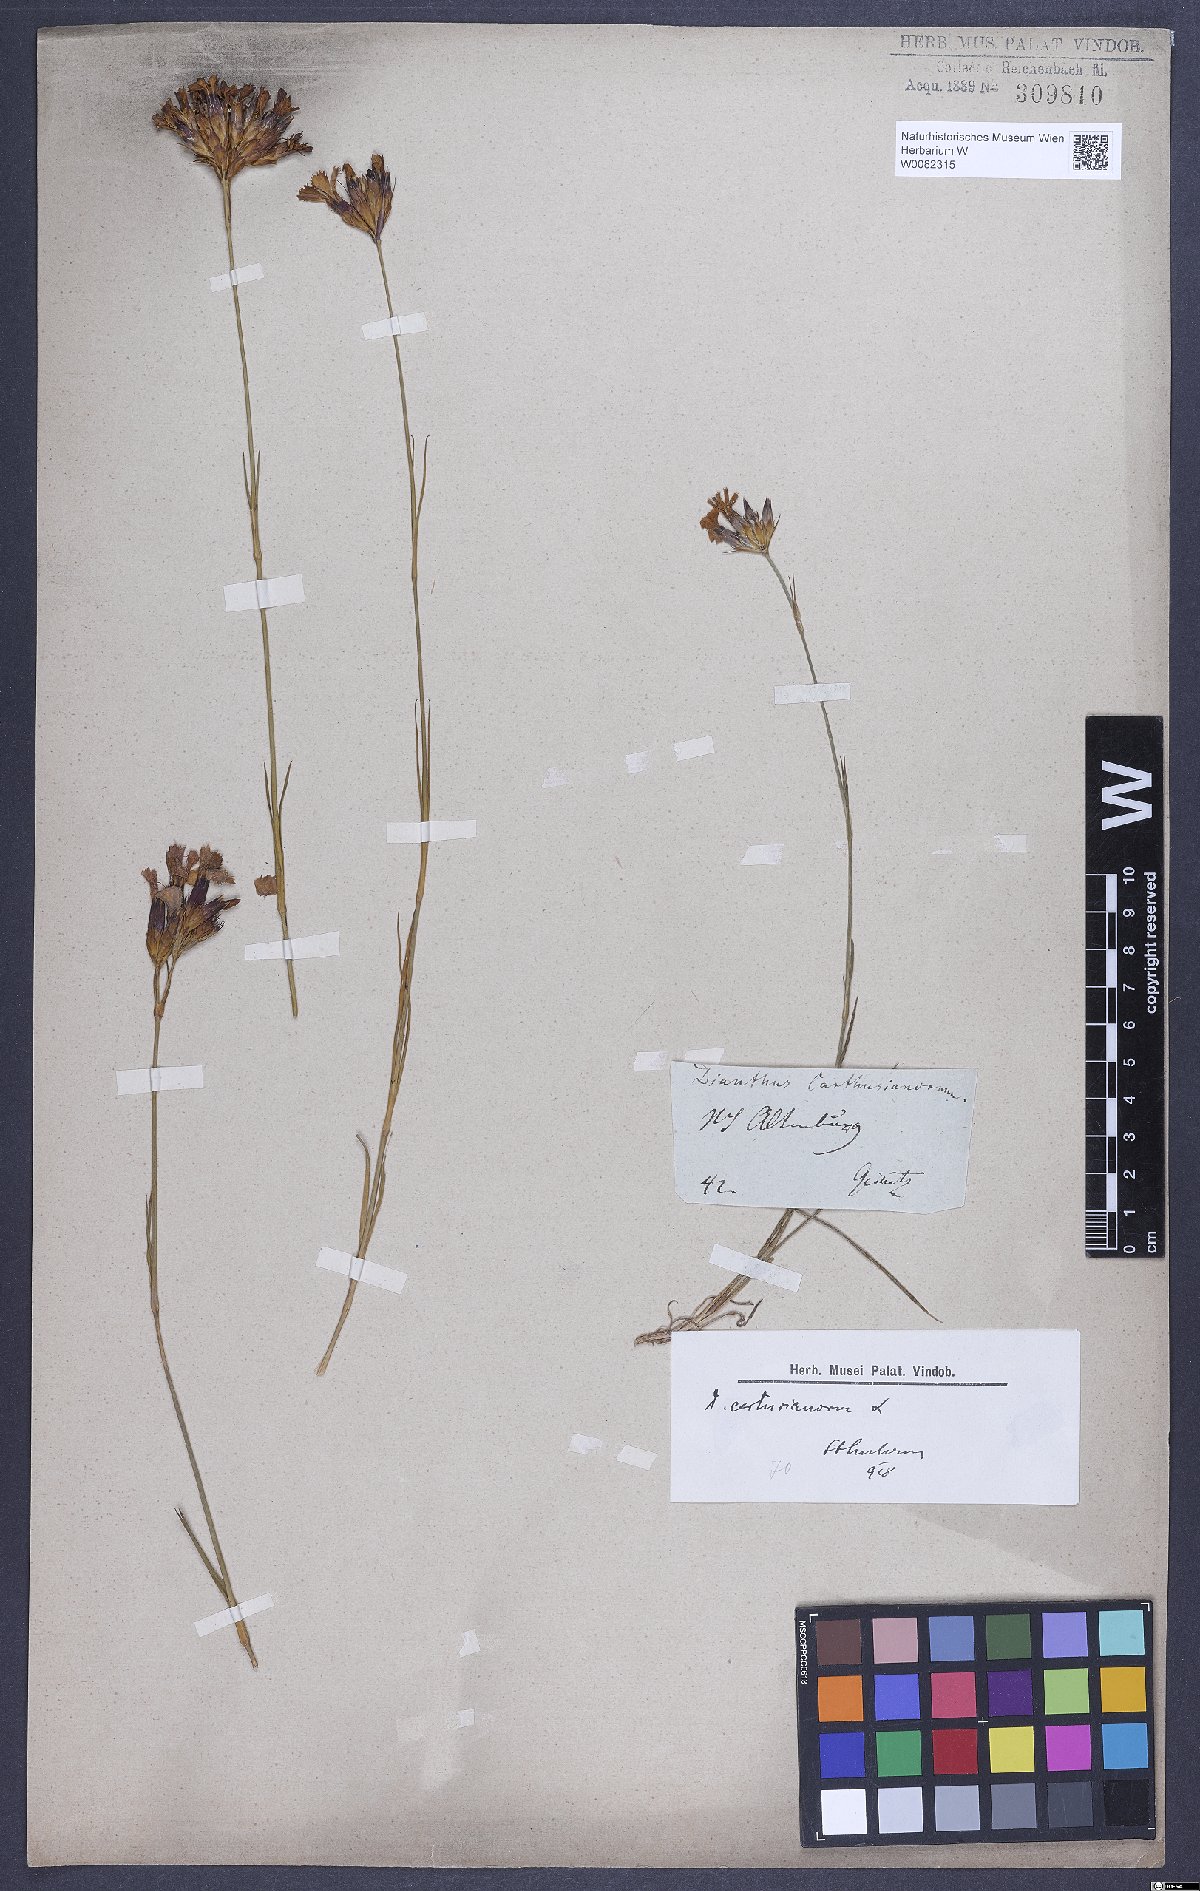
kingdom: Plantae
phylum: Tracheophyta
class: Magnoliopsida
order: Caryophyllales
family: Caryophyllaceae
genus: Dianthus
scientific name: Dianthus carthusianorum
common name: Carthusian pink
